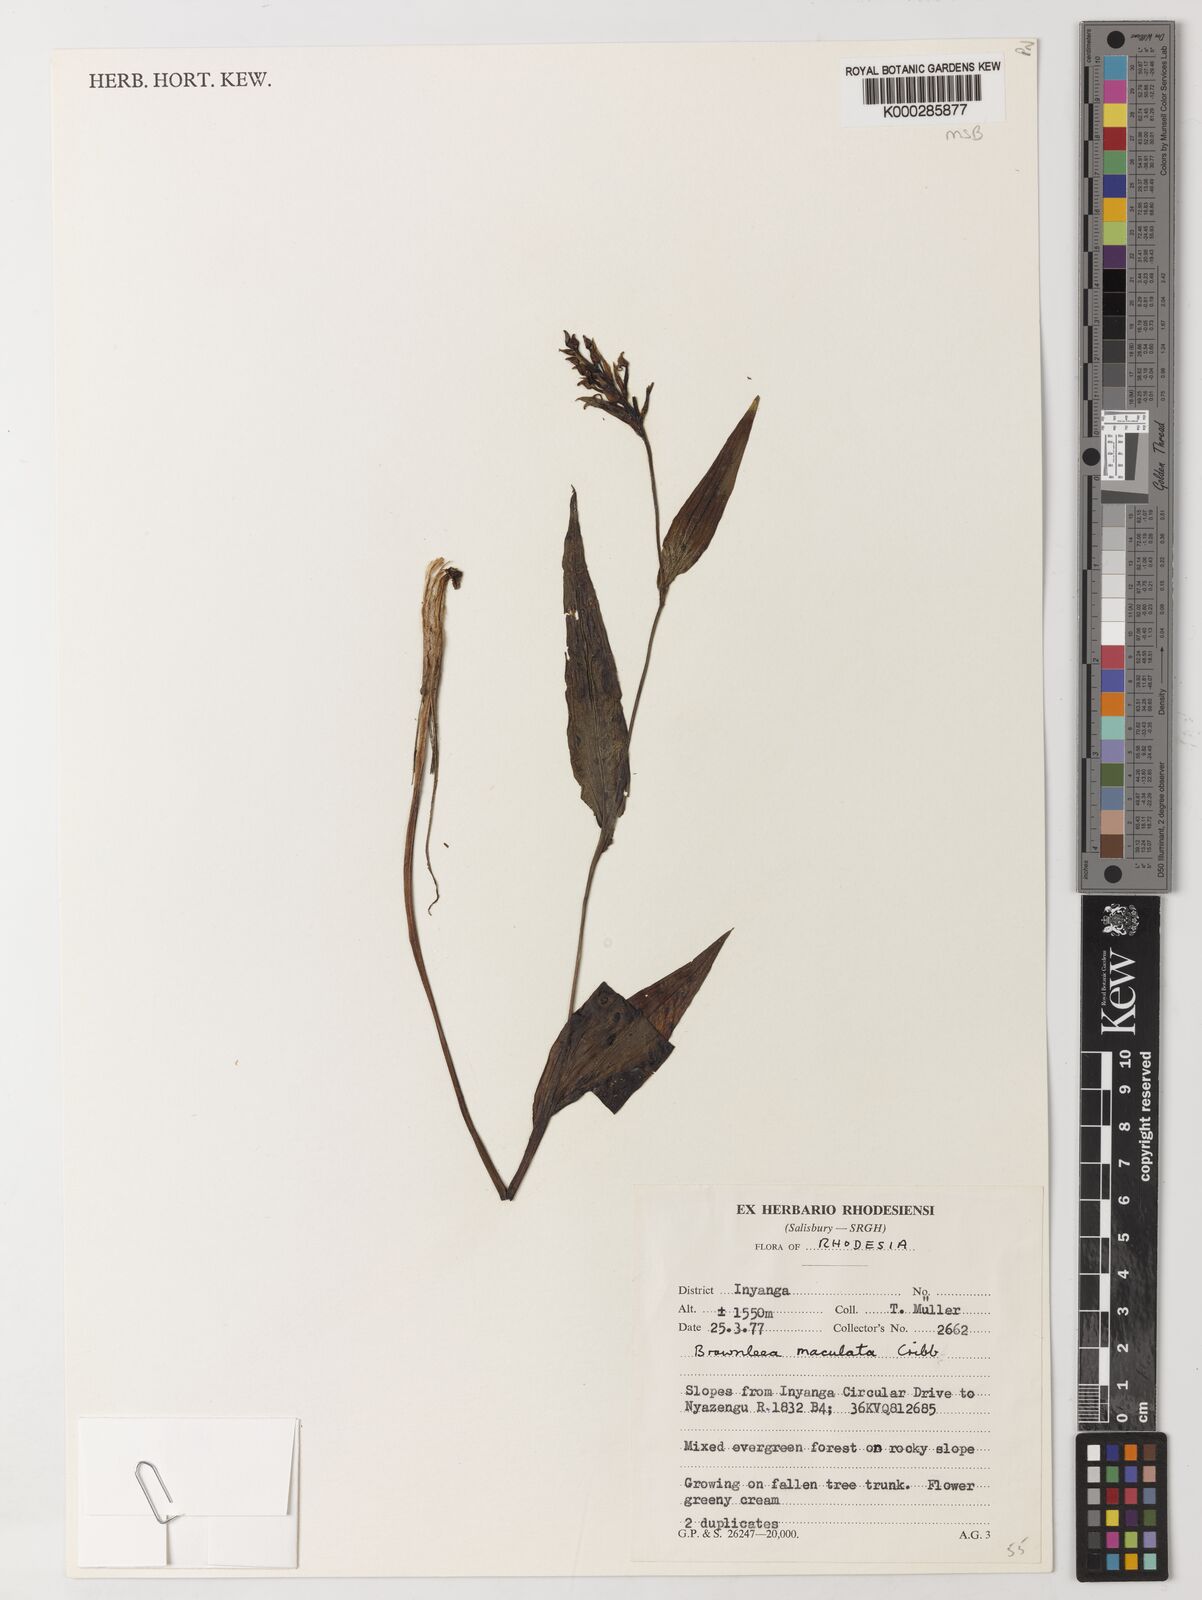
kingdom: Plantae
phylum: Tracheophyta
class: Liliopsida
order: Asparagales
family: Orchidaceae
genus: Brownleea
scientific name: Brownleea maculata
